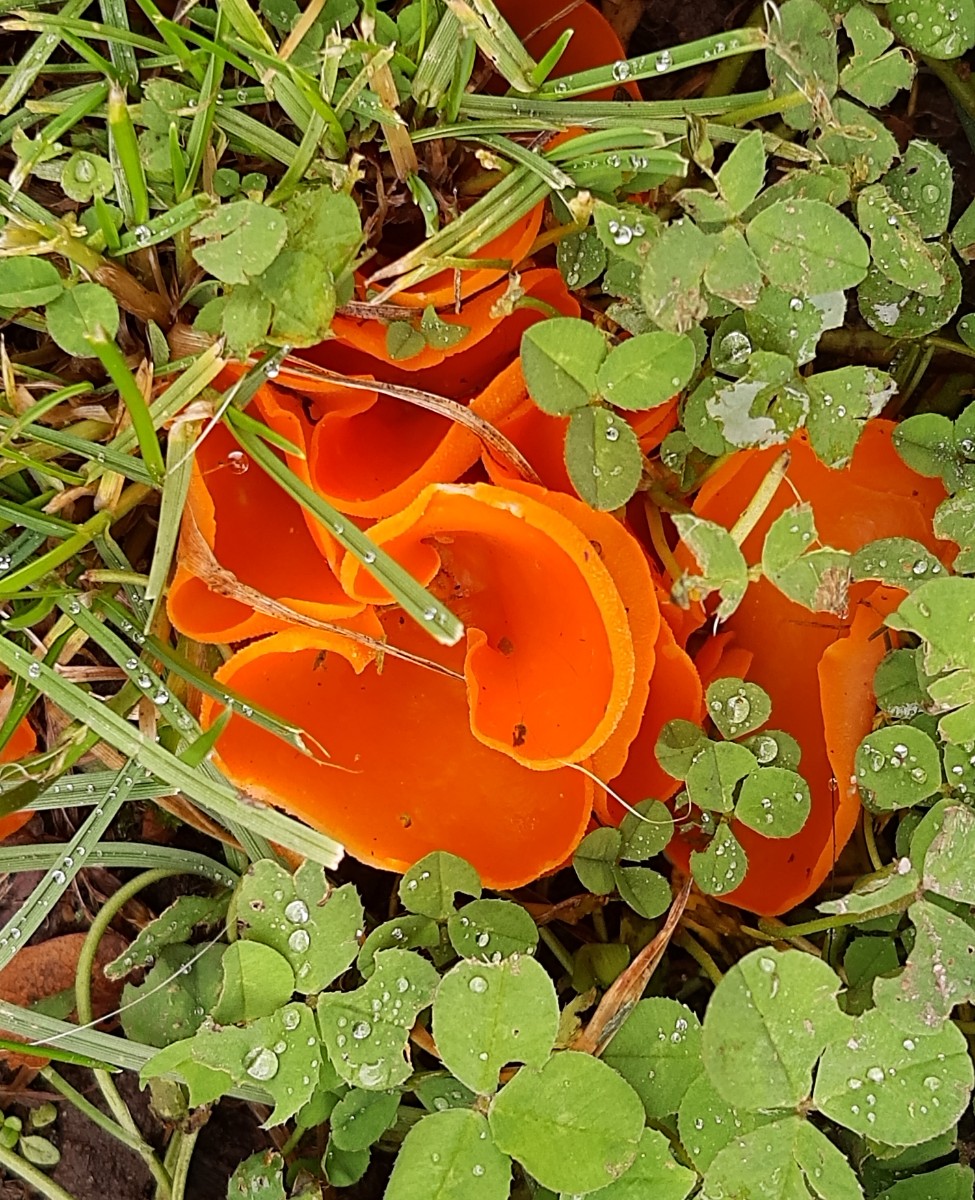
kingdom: Fungi
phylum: Ascomycota
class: Pezizomycetes
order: Pezizales
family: Pyronemataceae
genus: Aleuria
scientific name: Aleuria aurantia
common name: almindelig orangebæger
